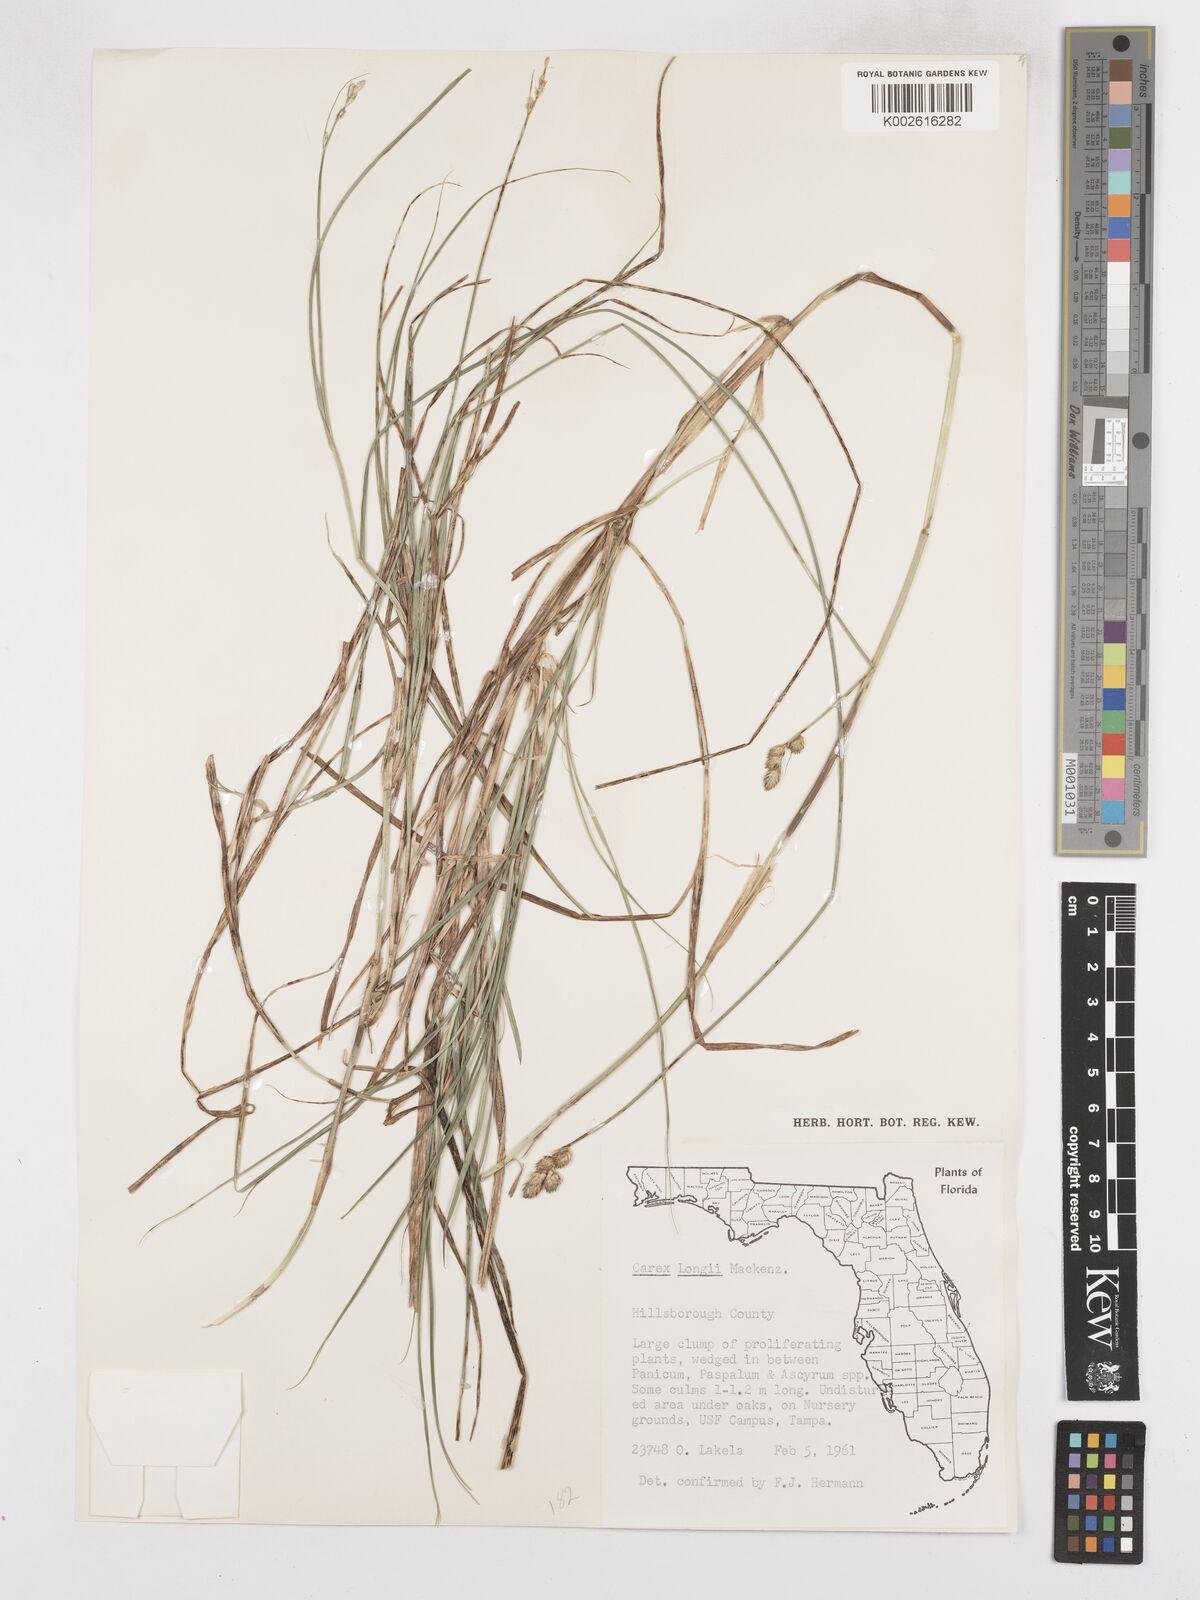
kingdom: Plantae
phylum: Tracheophyta
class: Liliopsida
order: Poales
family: Cyperaceae
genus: Carex
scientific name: Carex longii
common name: Long's sedge
